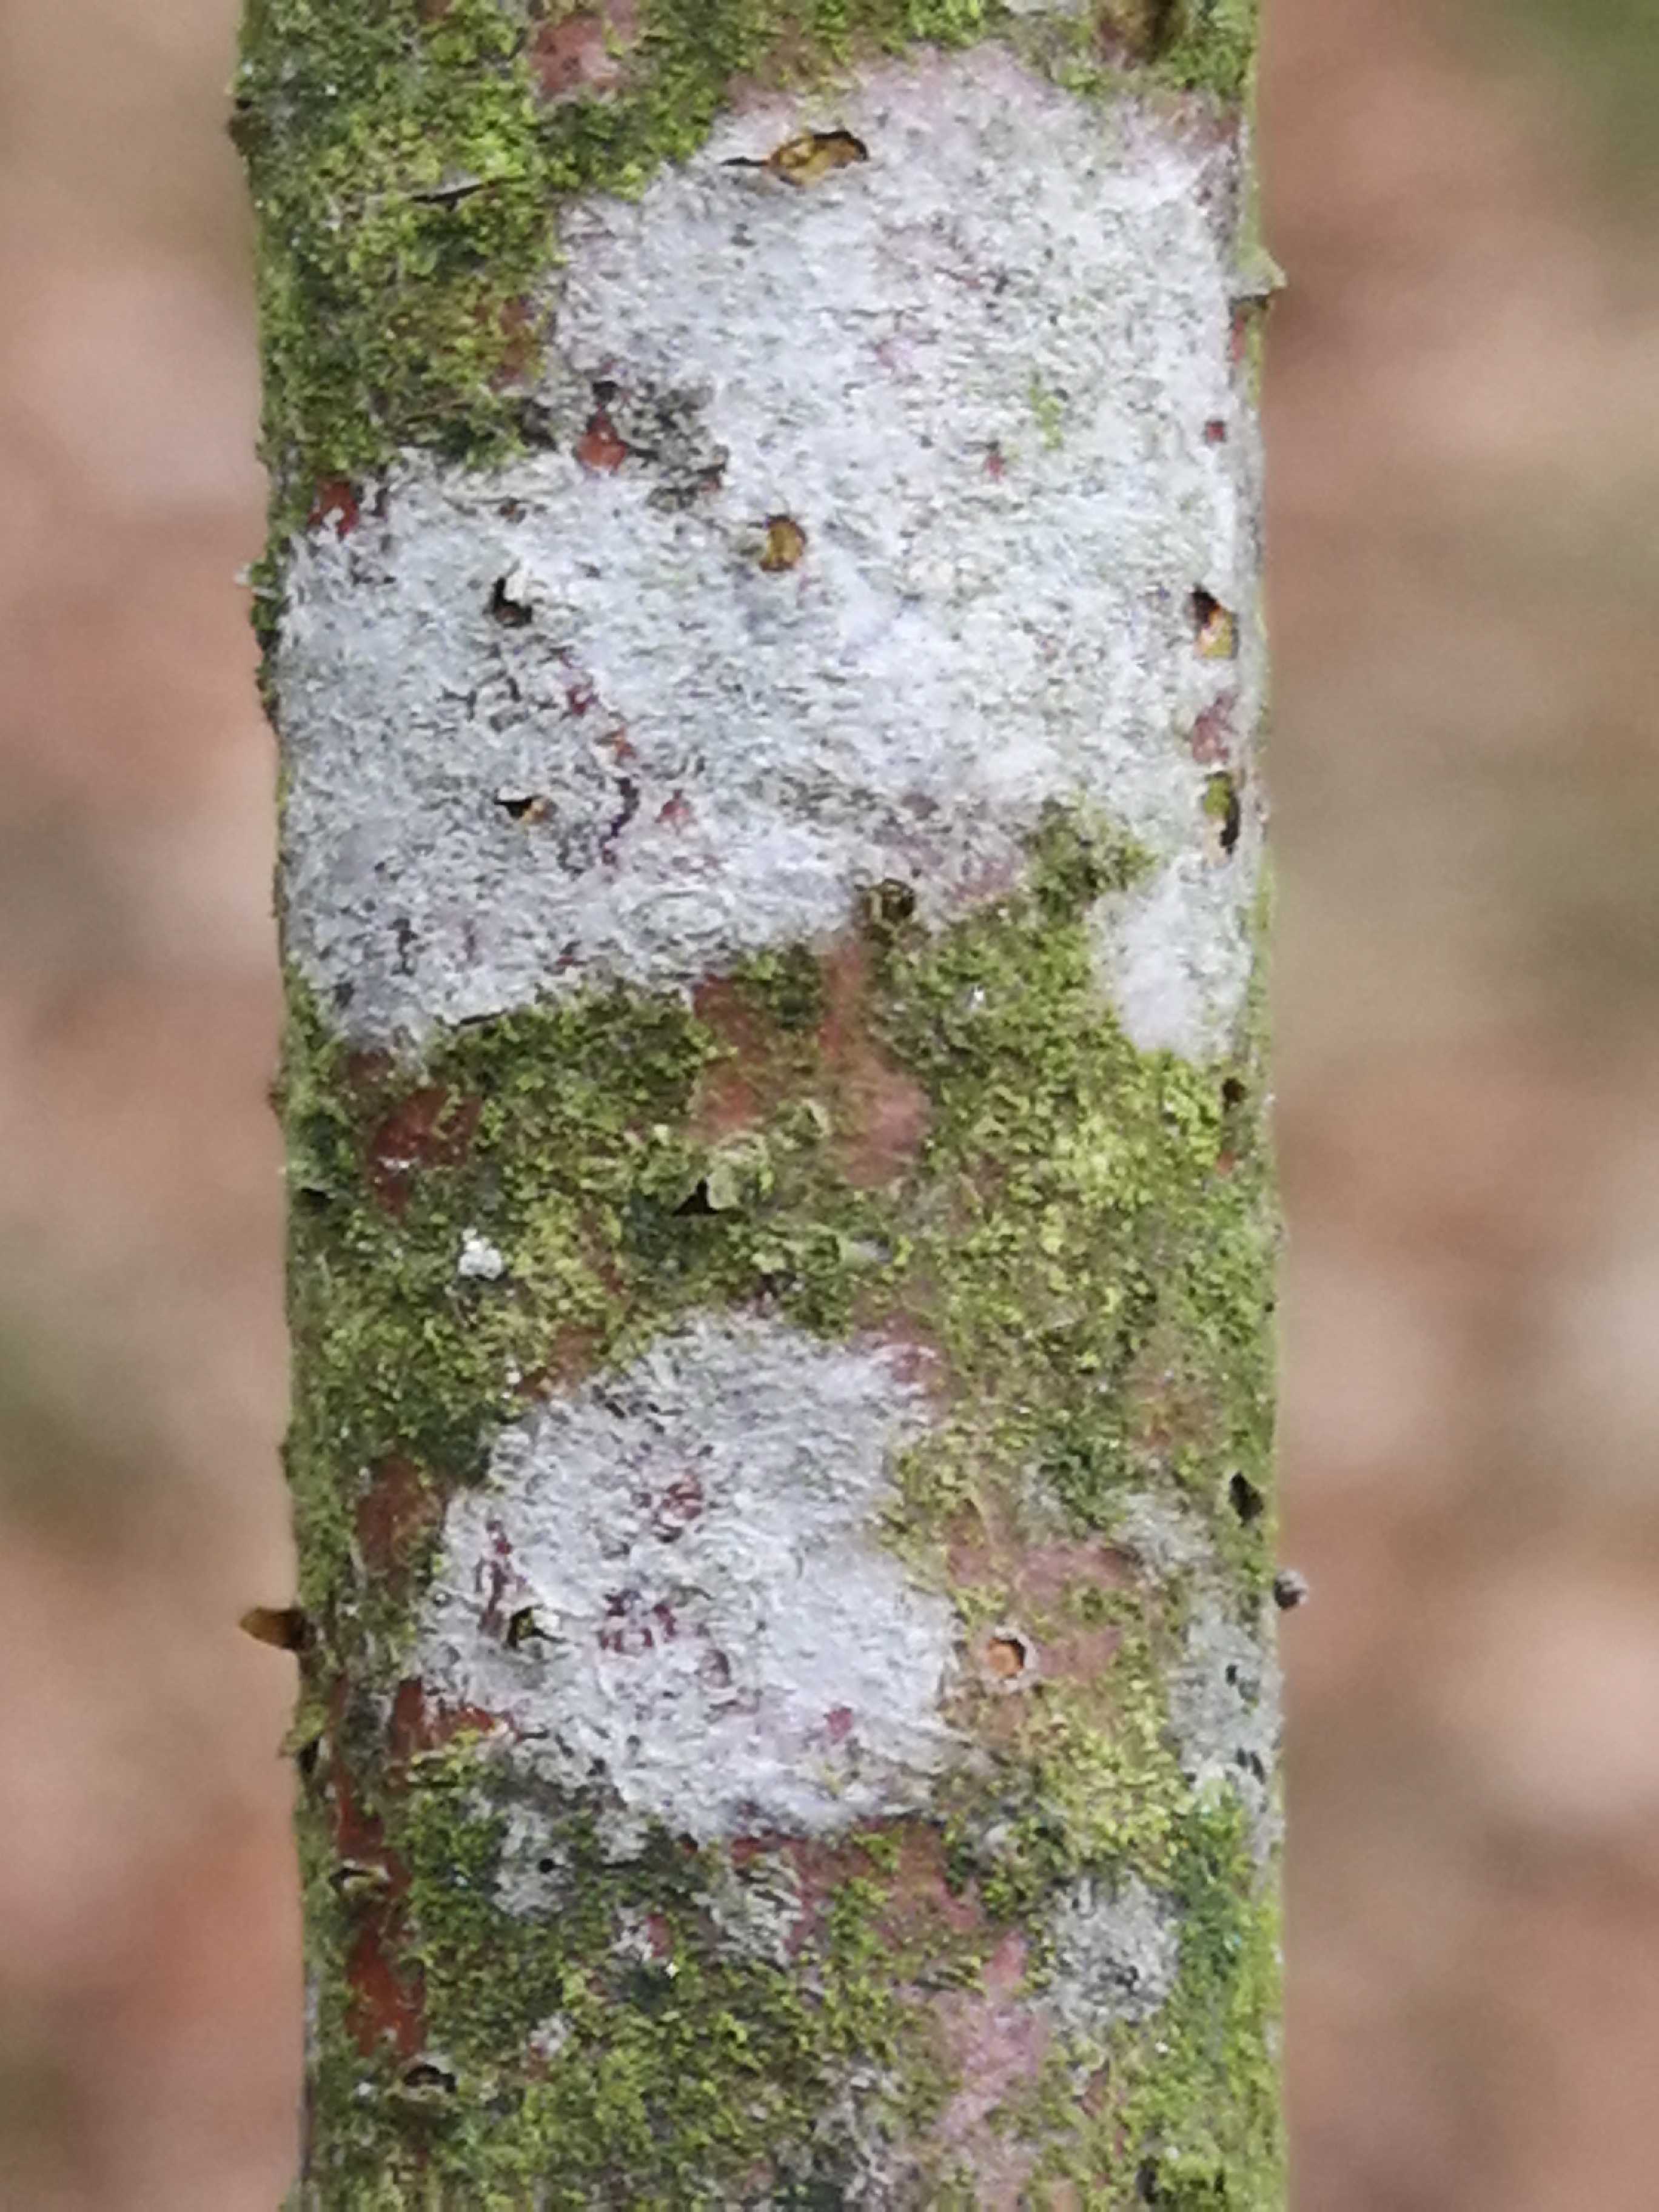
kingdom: Fungi
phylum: Ascomycota
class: Lecanoromycetes
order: Ostropales
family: Phlyctidaceae
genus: Phlyctis
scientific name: Phlyctis argena
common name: almindelig sølvlav
